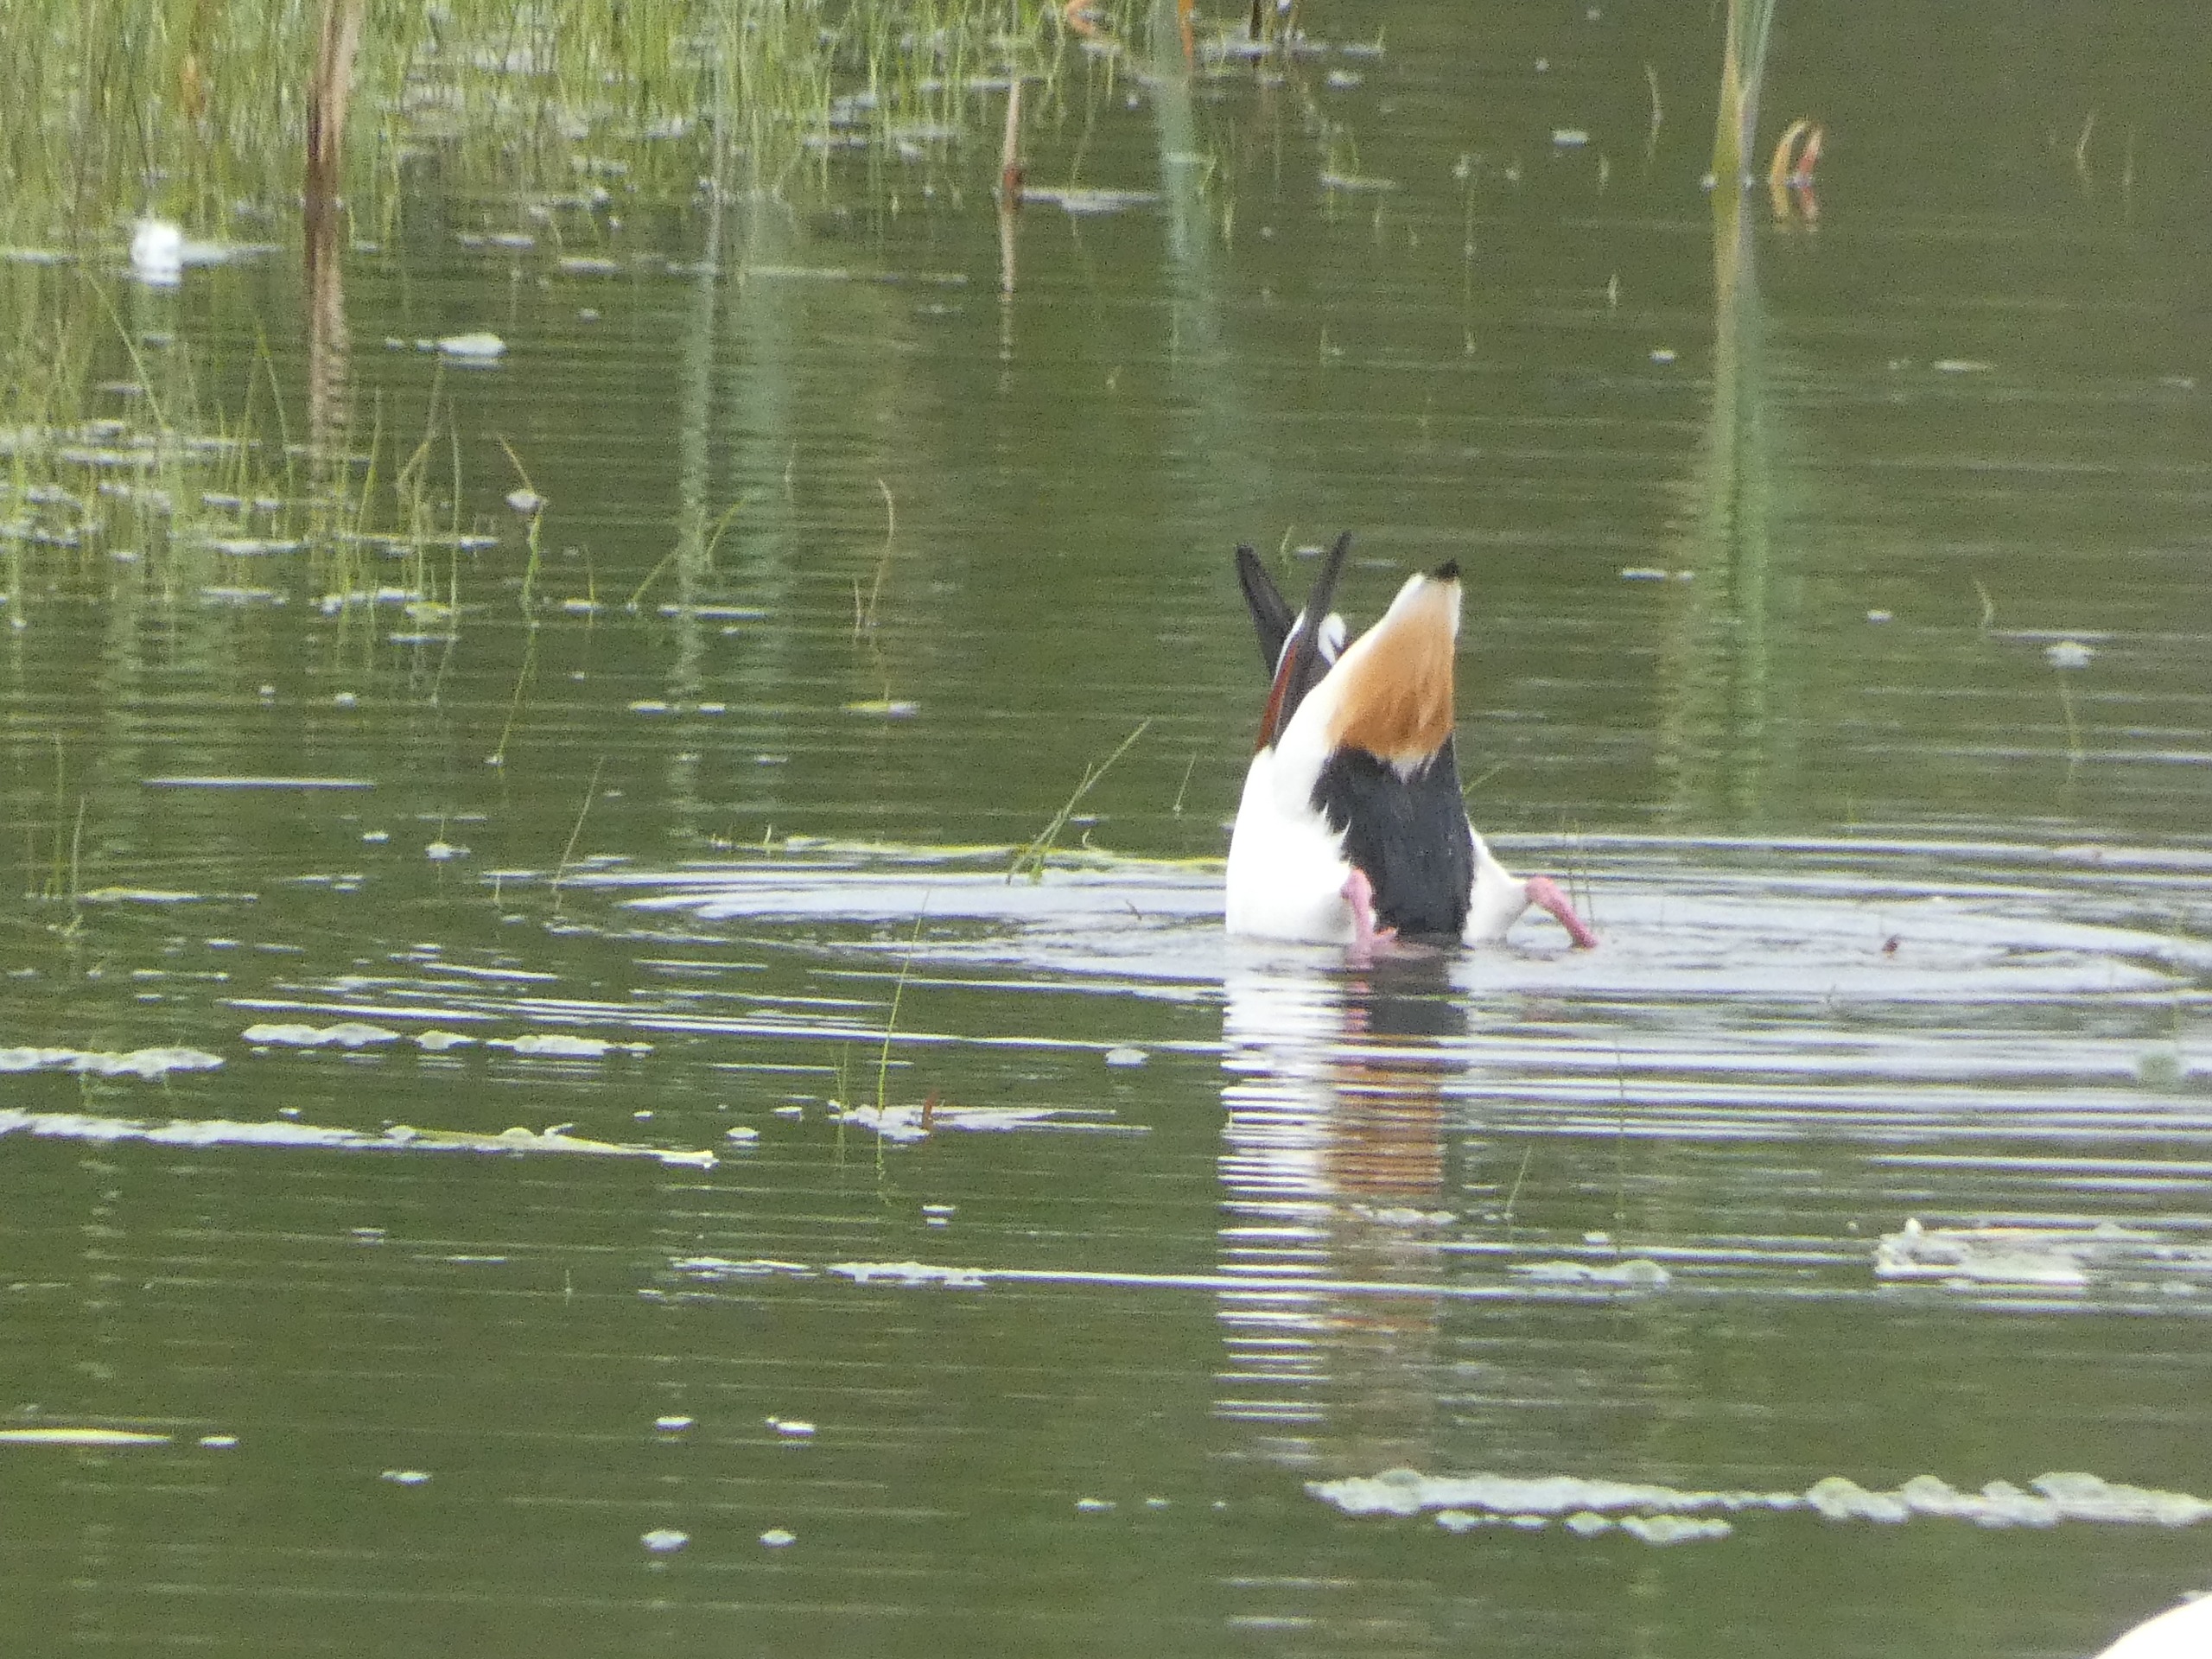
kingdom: Animalia
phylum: Chordata
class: Aves
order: Anseriformes
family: Anatidae
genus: Tadorna
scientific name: Tadorna tadorna
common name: Gravand
